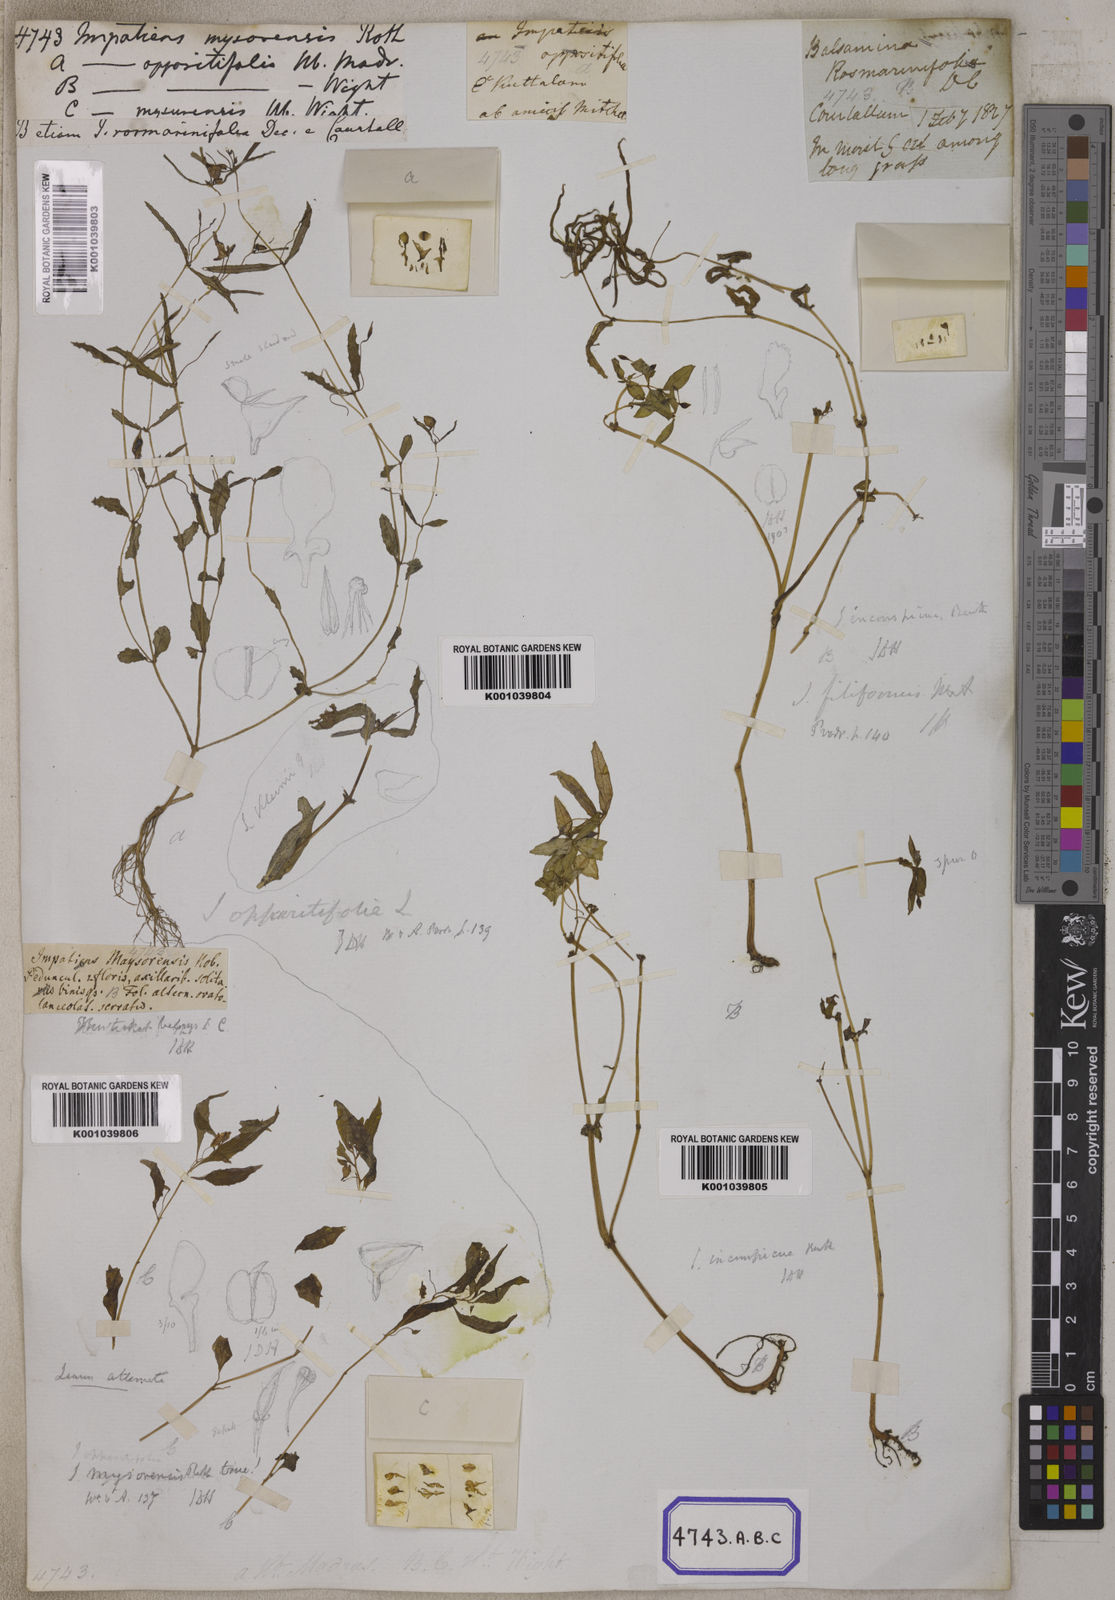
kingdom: Plantae
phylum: Tracheophyta
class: Magnoliopsida
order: Ericales
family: Balsaminaceae
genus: Impatiens
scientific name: Impatiens inconspicua
